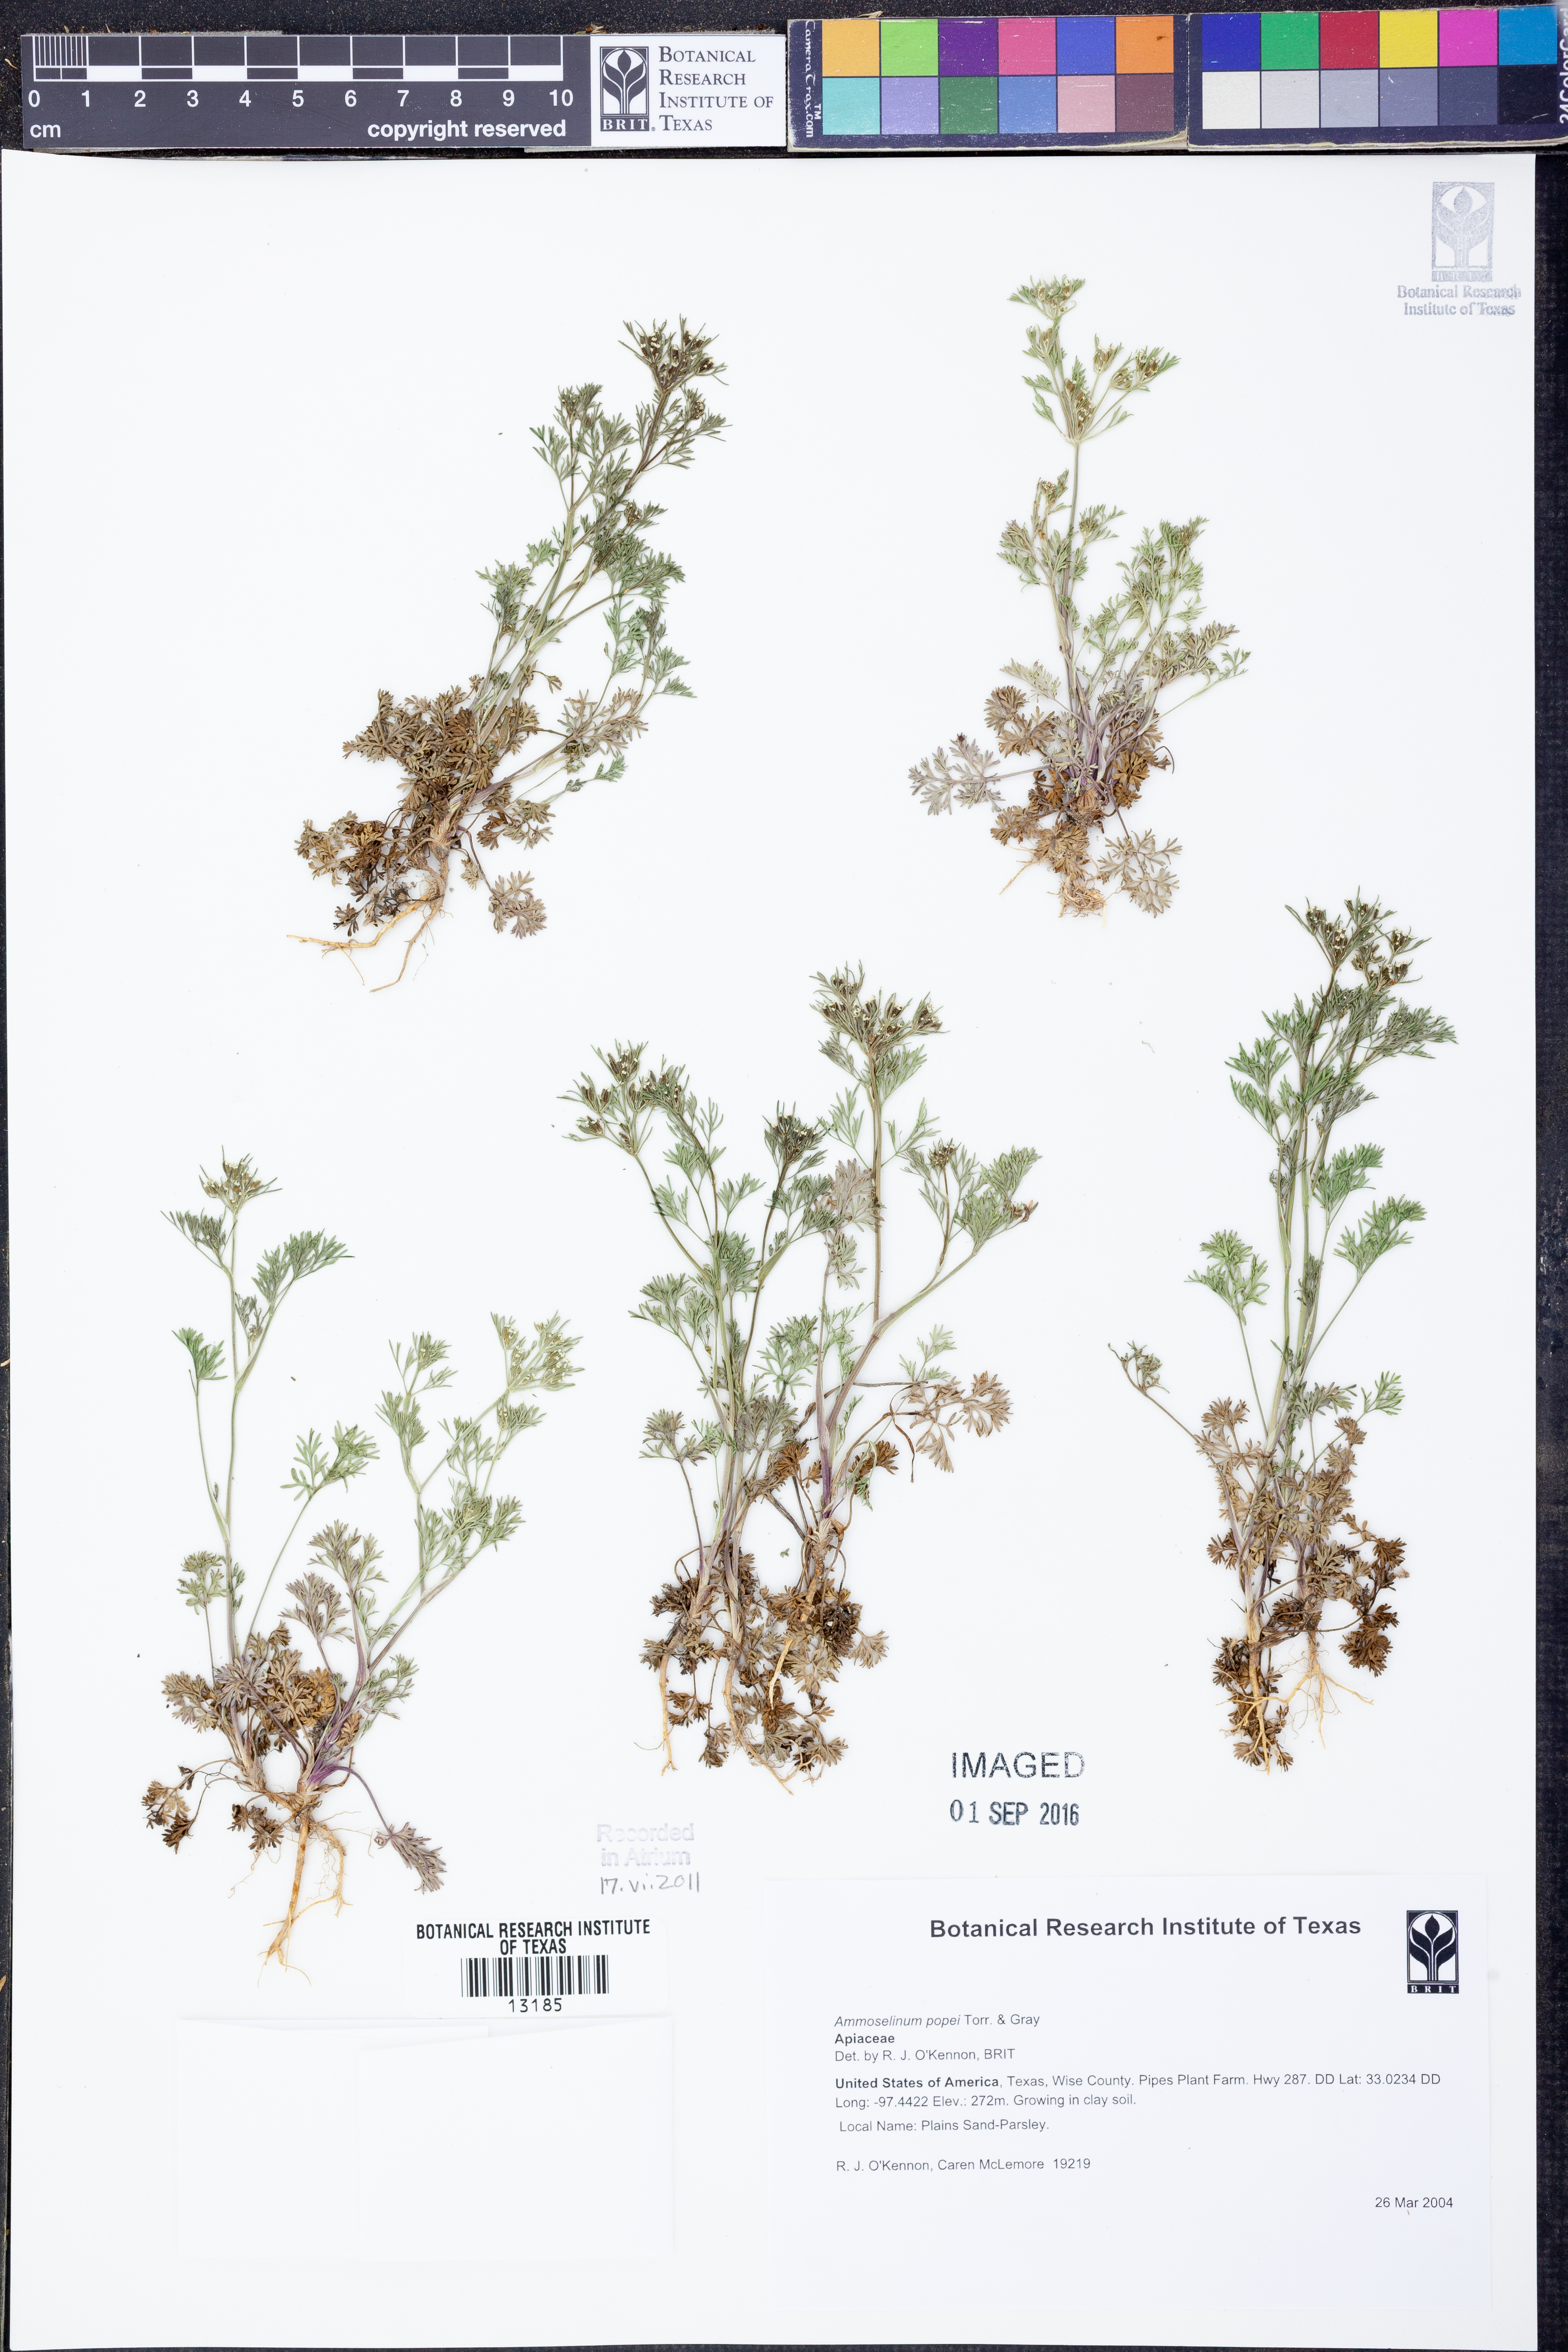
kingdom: Plantae
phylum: Tracheophyta
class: Magnoliopsida
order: Apiales
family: Apiaceae
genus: Ammoselinum
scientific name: Ammoselinum popei
